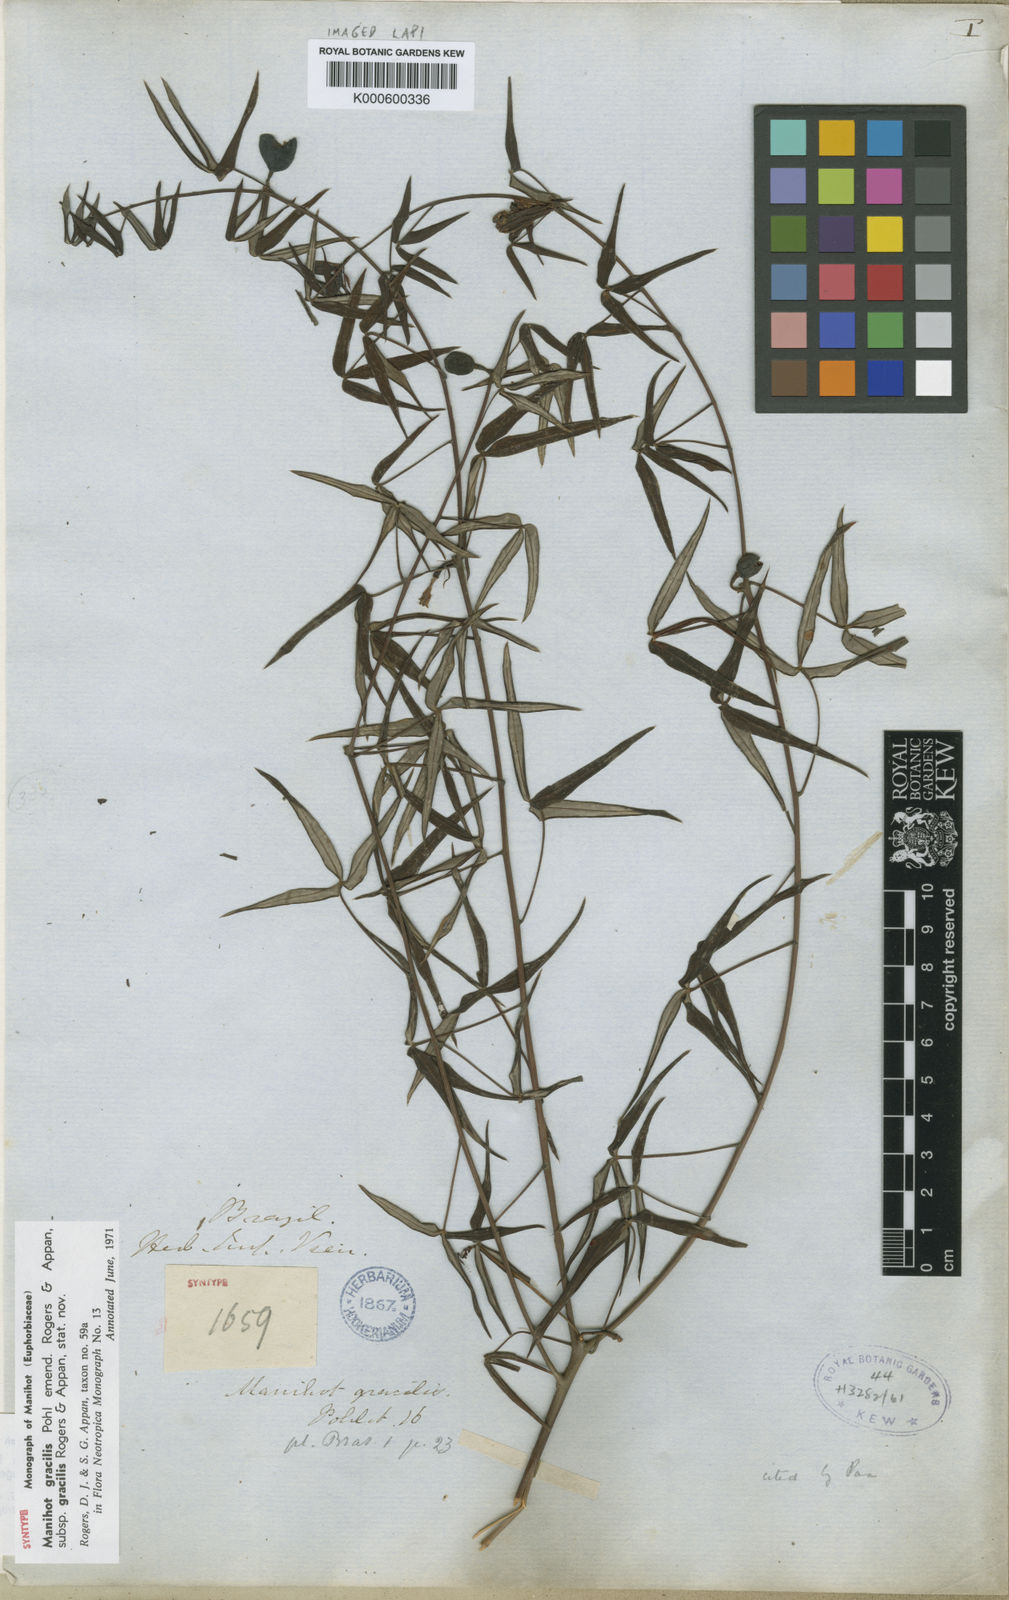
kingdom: Plantae
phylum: Tracheophyta
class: Magnoliopsida
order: Malpighiales
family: Euphorbiaceae
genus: Manihot
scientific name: Manihot gracilis
